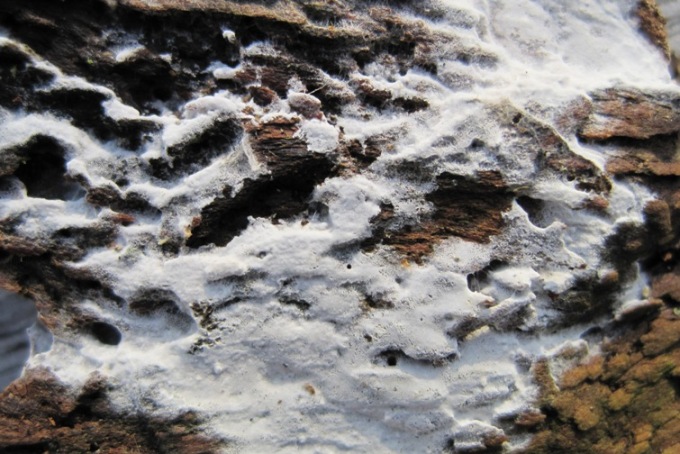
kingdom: Fungi
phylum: Basidiomycota
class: Agaricomycetes
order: Atheliales
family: Atheliaceae
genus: Athelia
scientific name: Athelia epiphylla
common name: almindelig barkhinde
